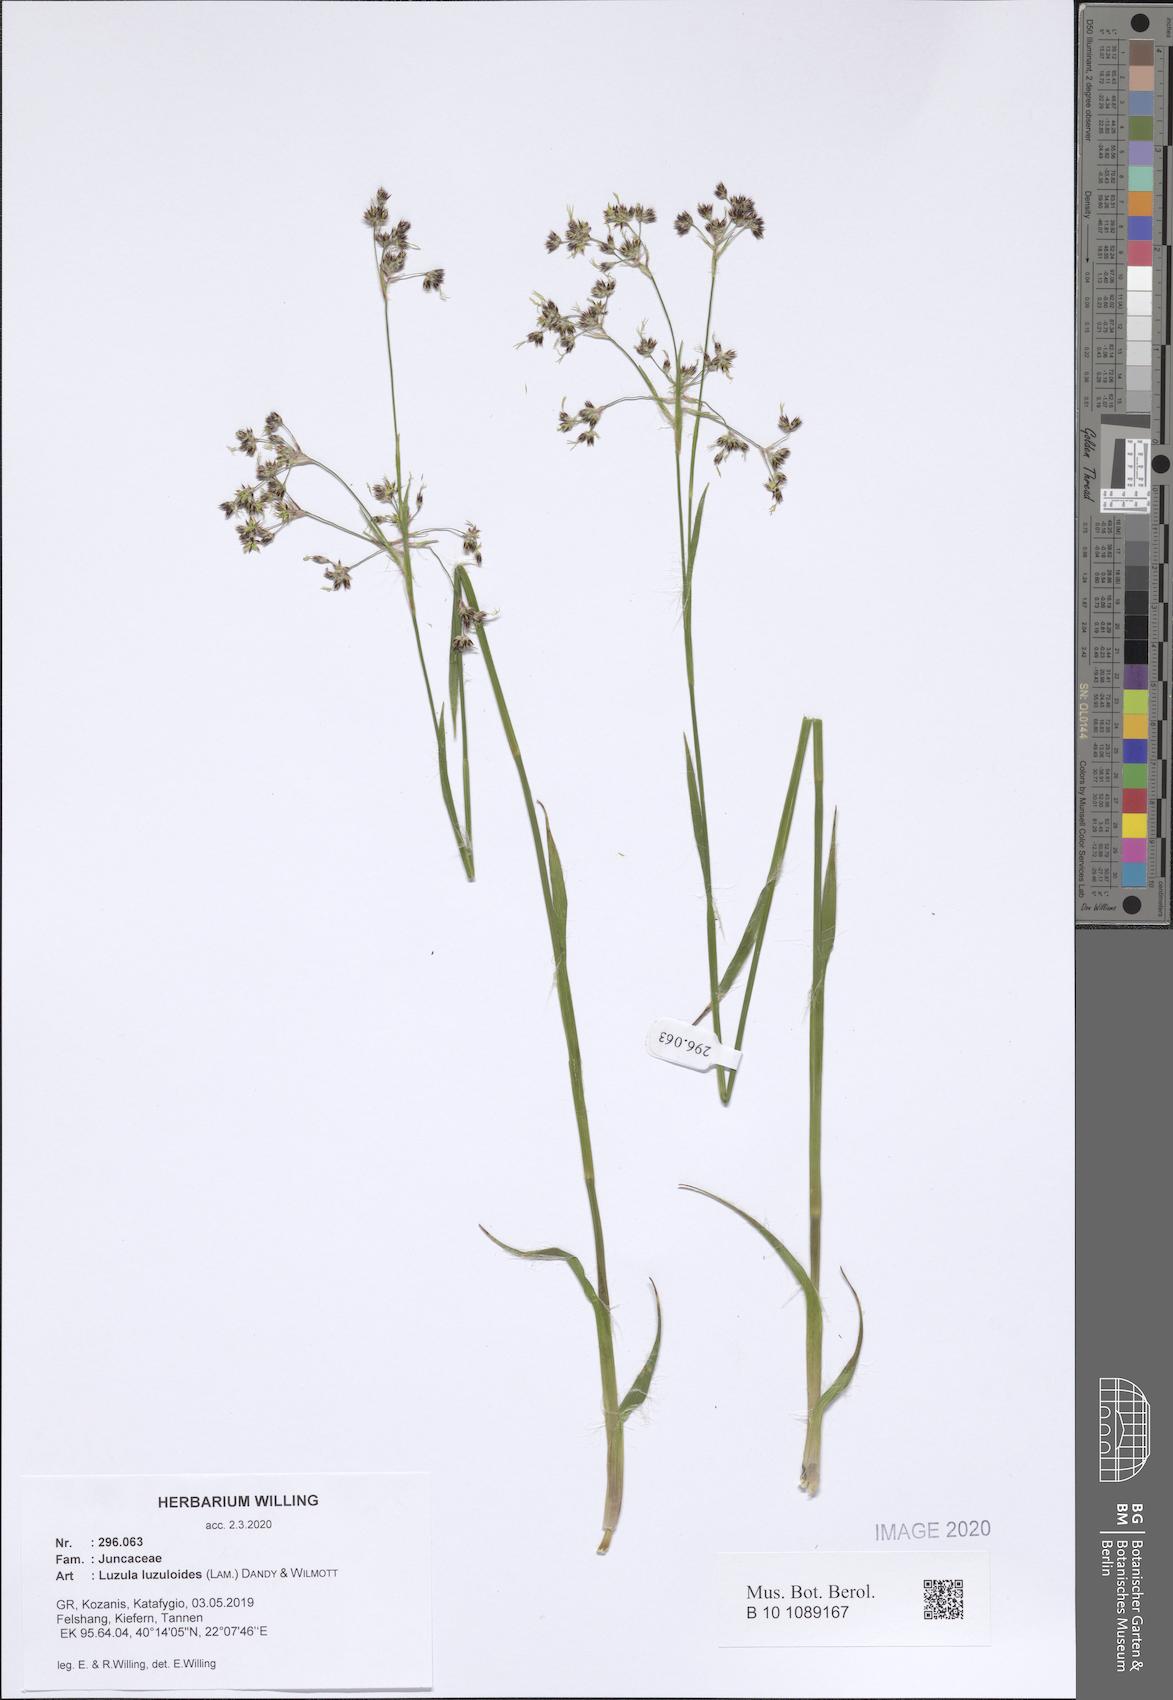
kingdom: Plantae
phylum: Tracheophyta
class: Liliopsida
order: Poales
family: Juncaceae
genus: Luzula
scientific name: Luzula luzuloides
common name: White wood-rush
